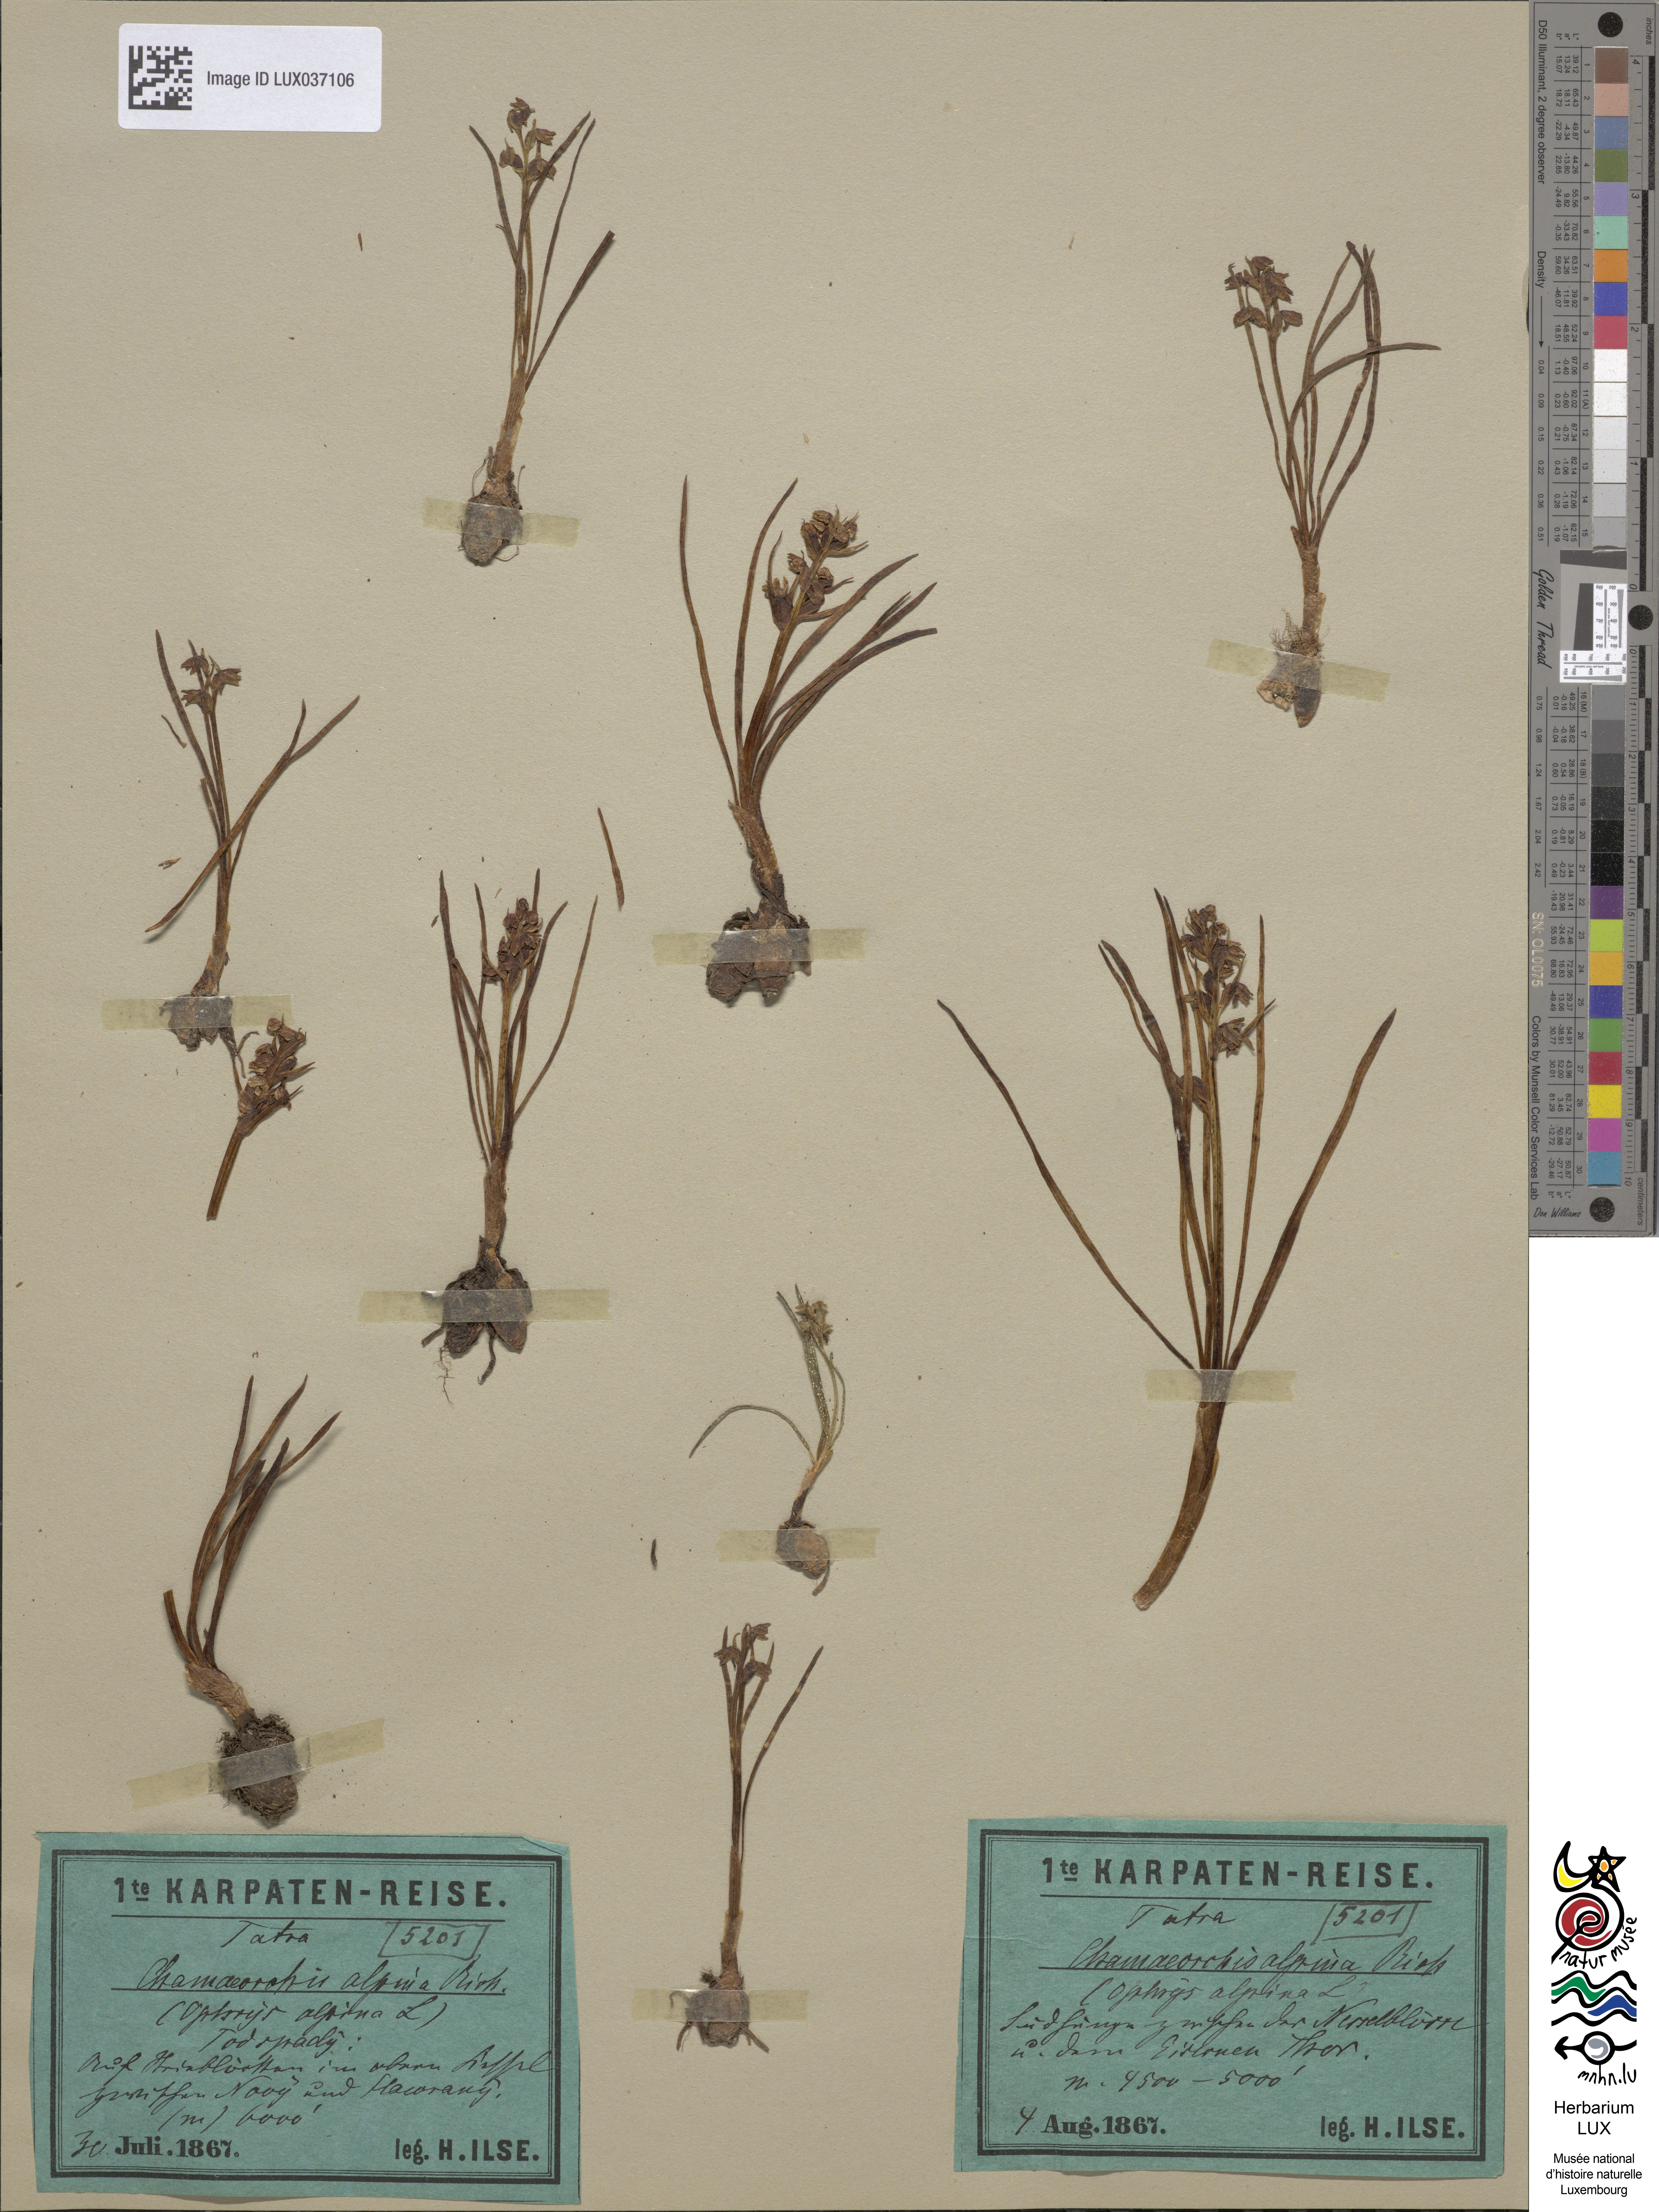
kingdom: Plantae
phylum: Tracheophyta
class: Liliopsida
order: Asparagales
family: Orchidaceae
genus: Chamorchis
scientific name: Chamorchis alpina
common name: Alpine chamorchis
